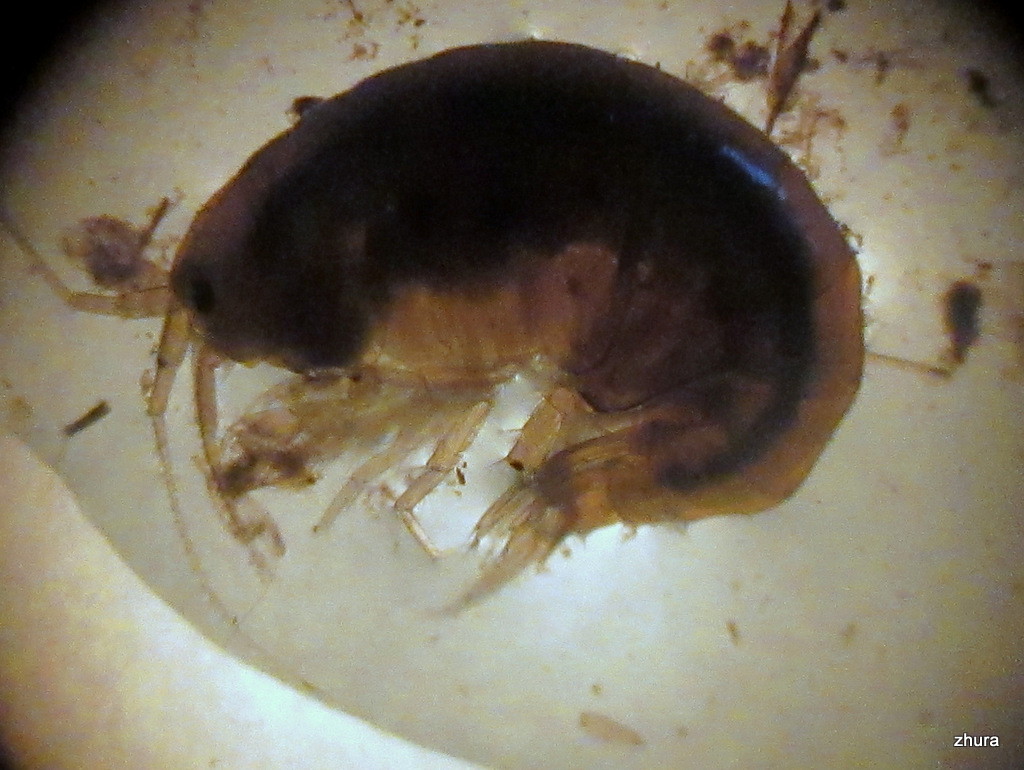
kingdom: Animalia
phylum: Arthropoda
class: Malacostraca
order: Amphipoda
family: Gammaridae
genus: Gammarus
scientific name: Gammarus
